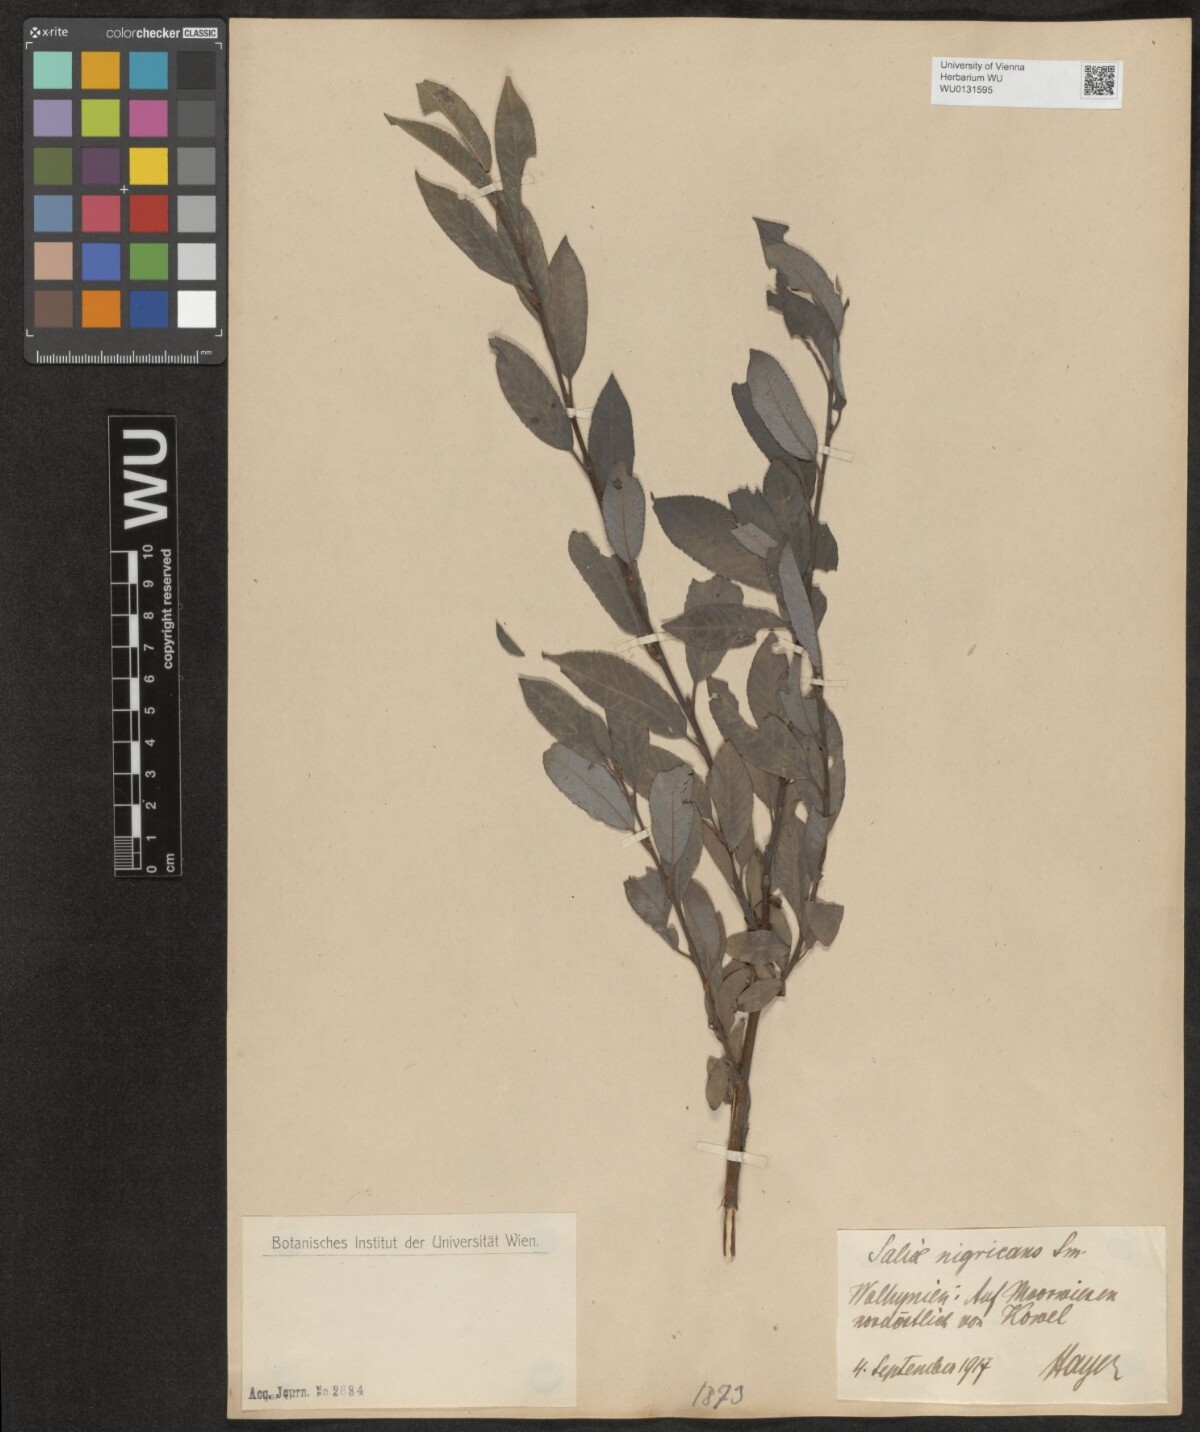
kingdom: Plantae
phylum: Tracheophyta
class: Magnoliopsida
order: Malpighiales
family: Salicaceae
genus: Salix
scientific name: Salix myrsinifolia
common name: Dark-leaved willow
